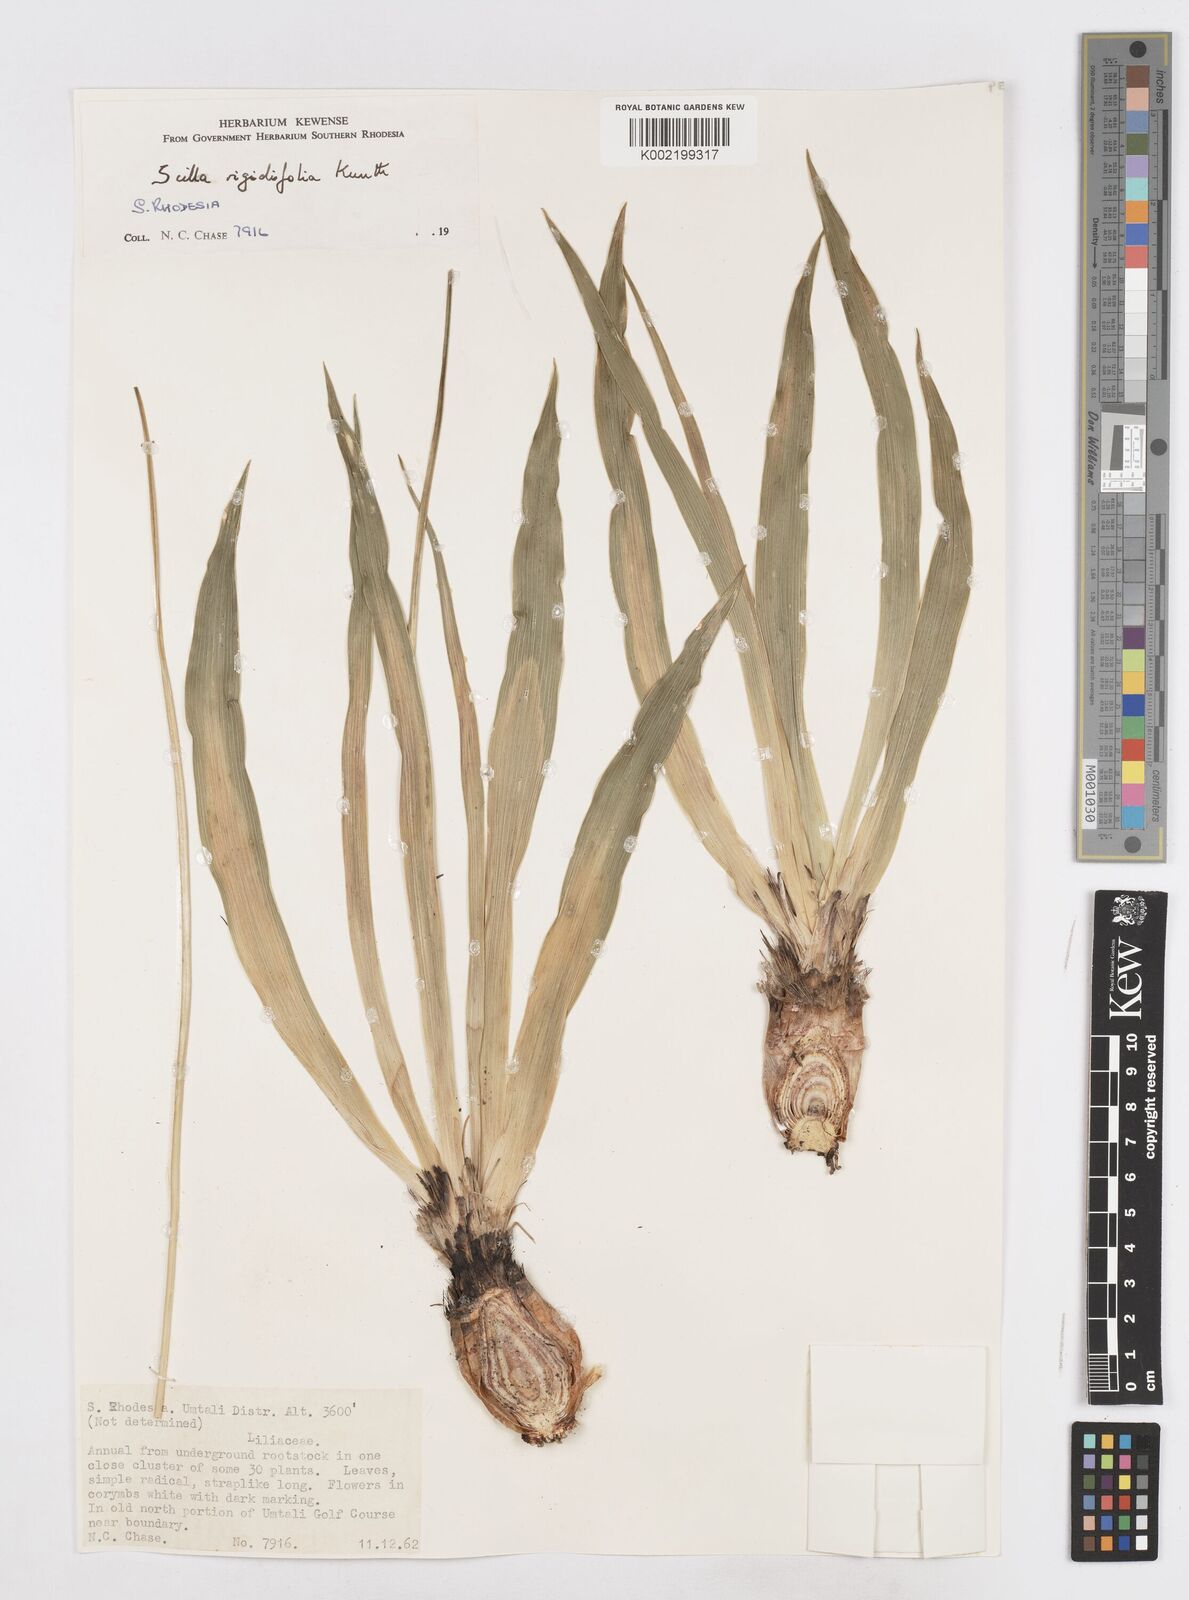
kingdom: Plantae
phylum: Tracheophyta
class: Liliopsida
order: Asparagales
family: Asparagaceae
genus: Schizocarphus
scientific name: Schizocarphus nervosus
